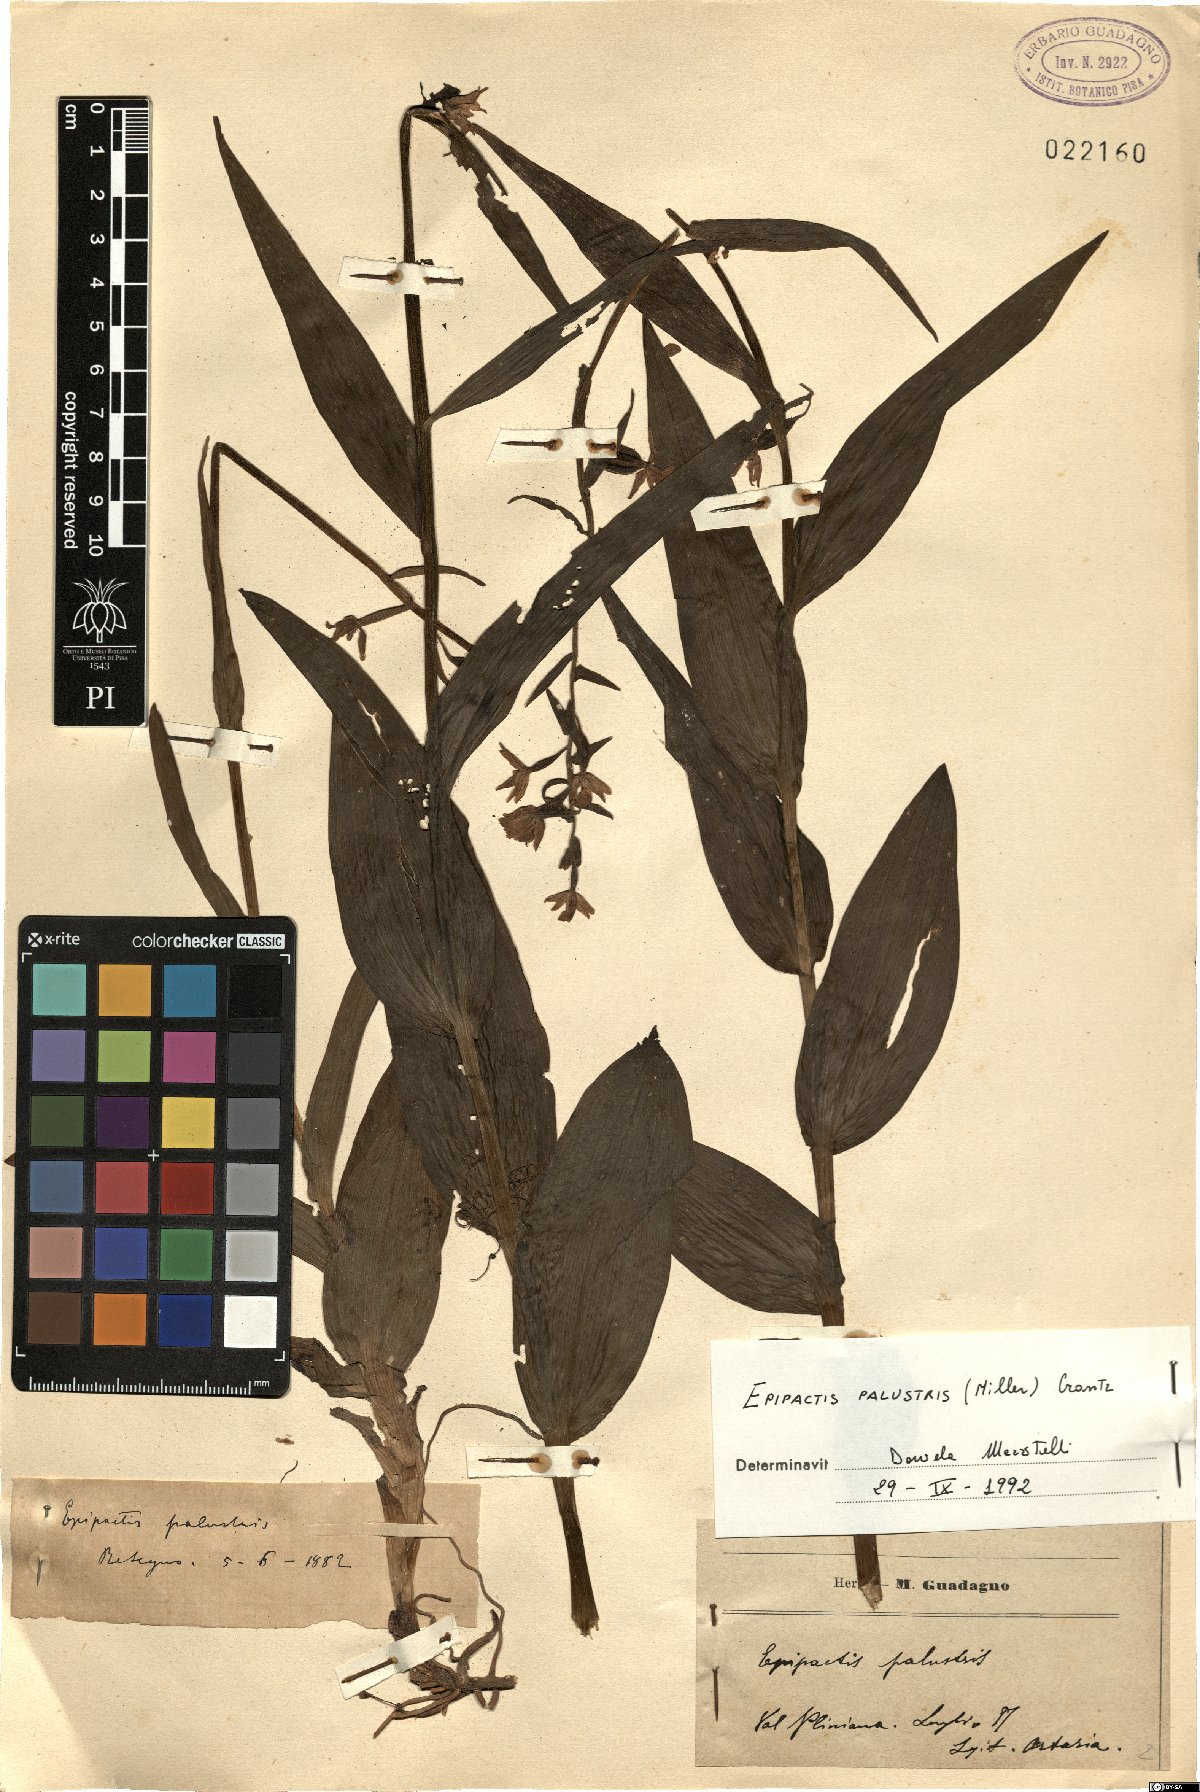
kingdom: Plantae
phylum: Tracheophyta
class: Liliopsida
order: Asparagales
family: Orchidaceae
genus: Epipactis
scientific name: Epipactis palustris
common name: Marsh helleborine
